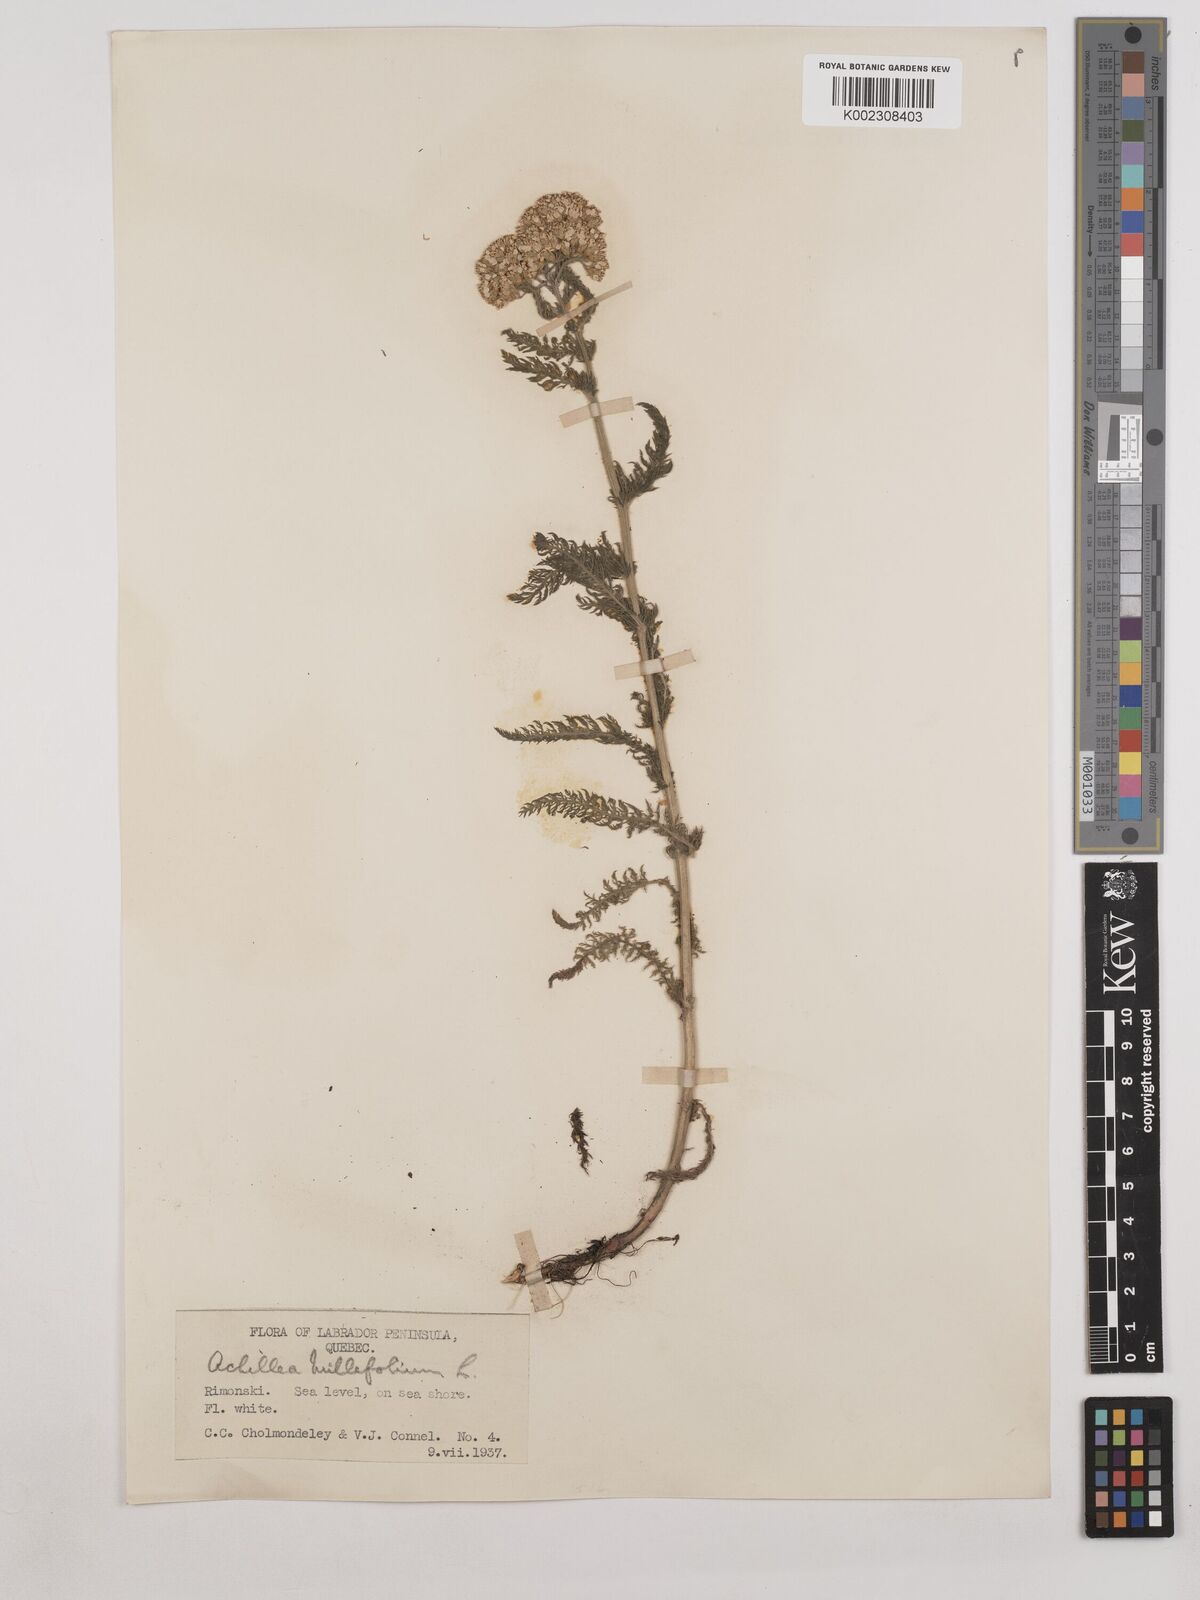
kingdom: Plantae
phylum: Tracheophyta
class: Magnoliopsida
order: Asterales
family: Asteraceae
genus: Achillea
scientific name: Achillea millefolium
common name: Yarrow
